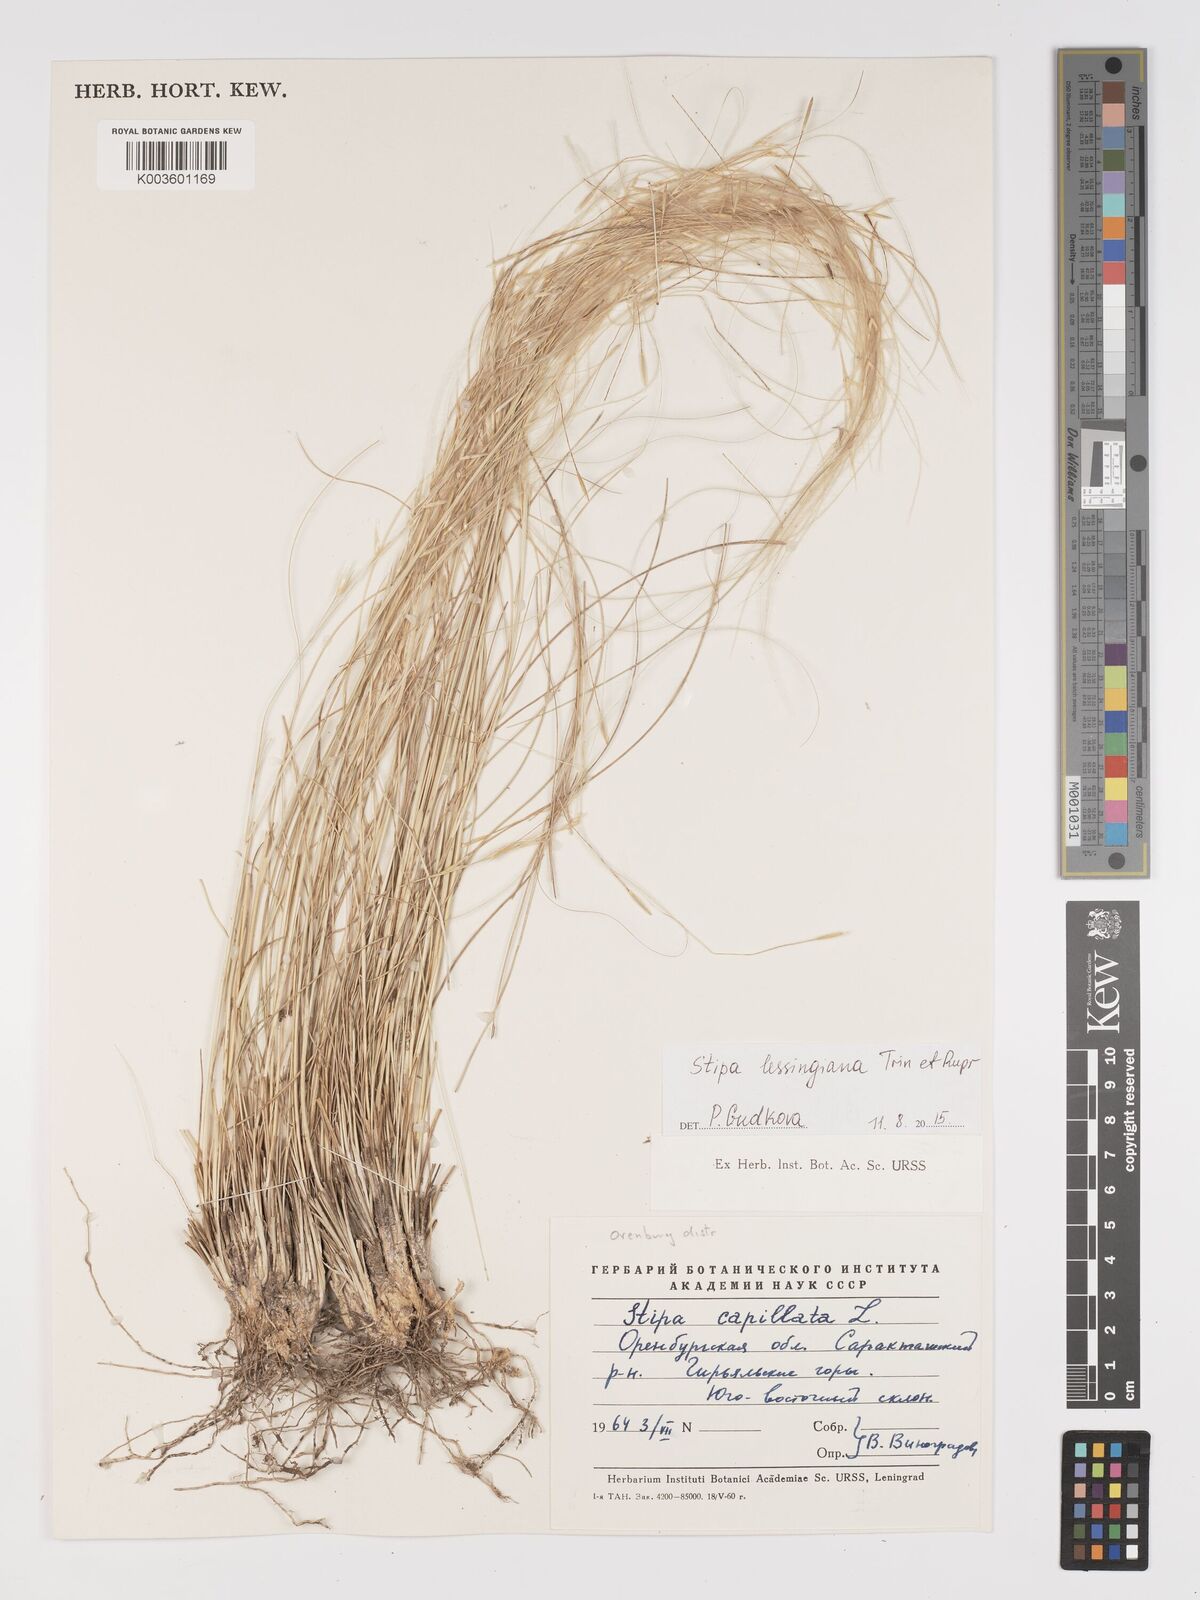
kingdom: Plantae
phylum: Tracheophyta
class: Liliopsida
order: Poales
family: Poaceae
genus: Stipa
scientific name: Stipa lessingiana
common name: Needle grass
